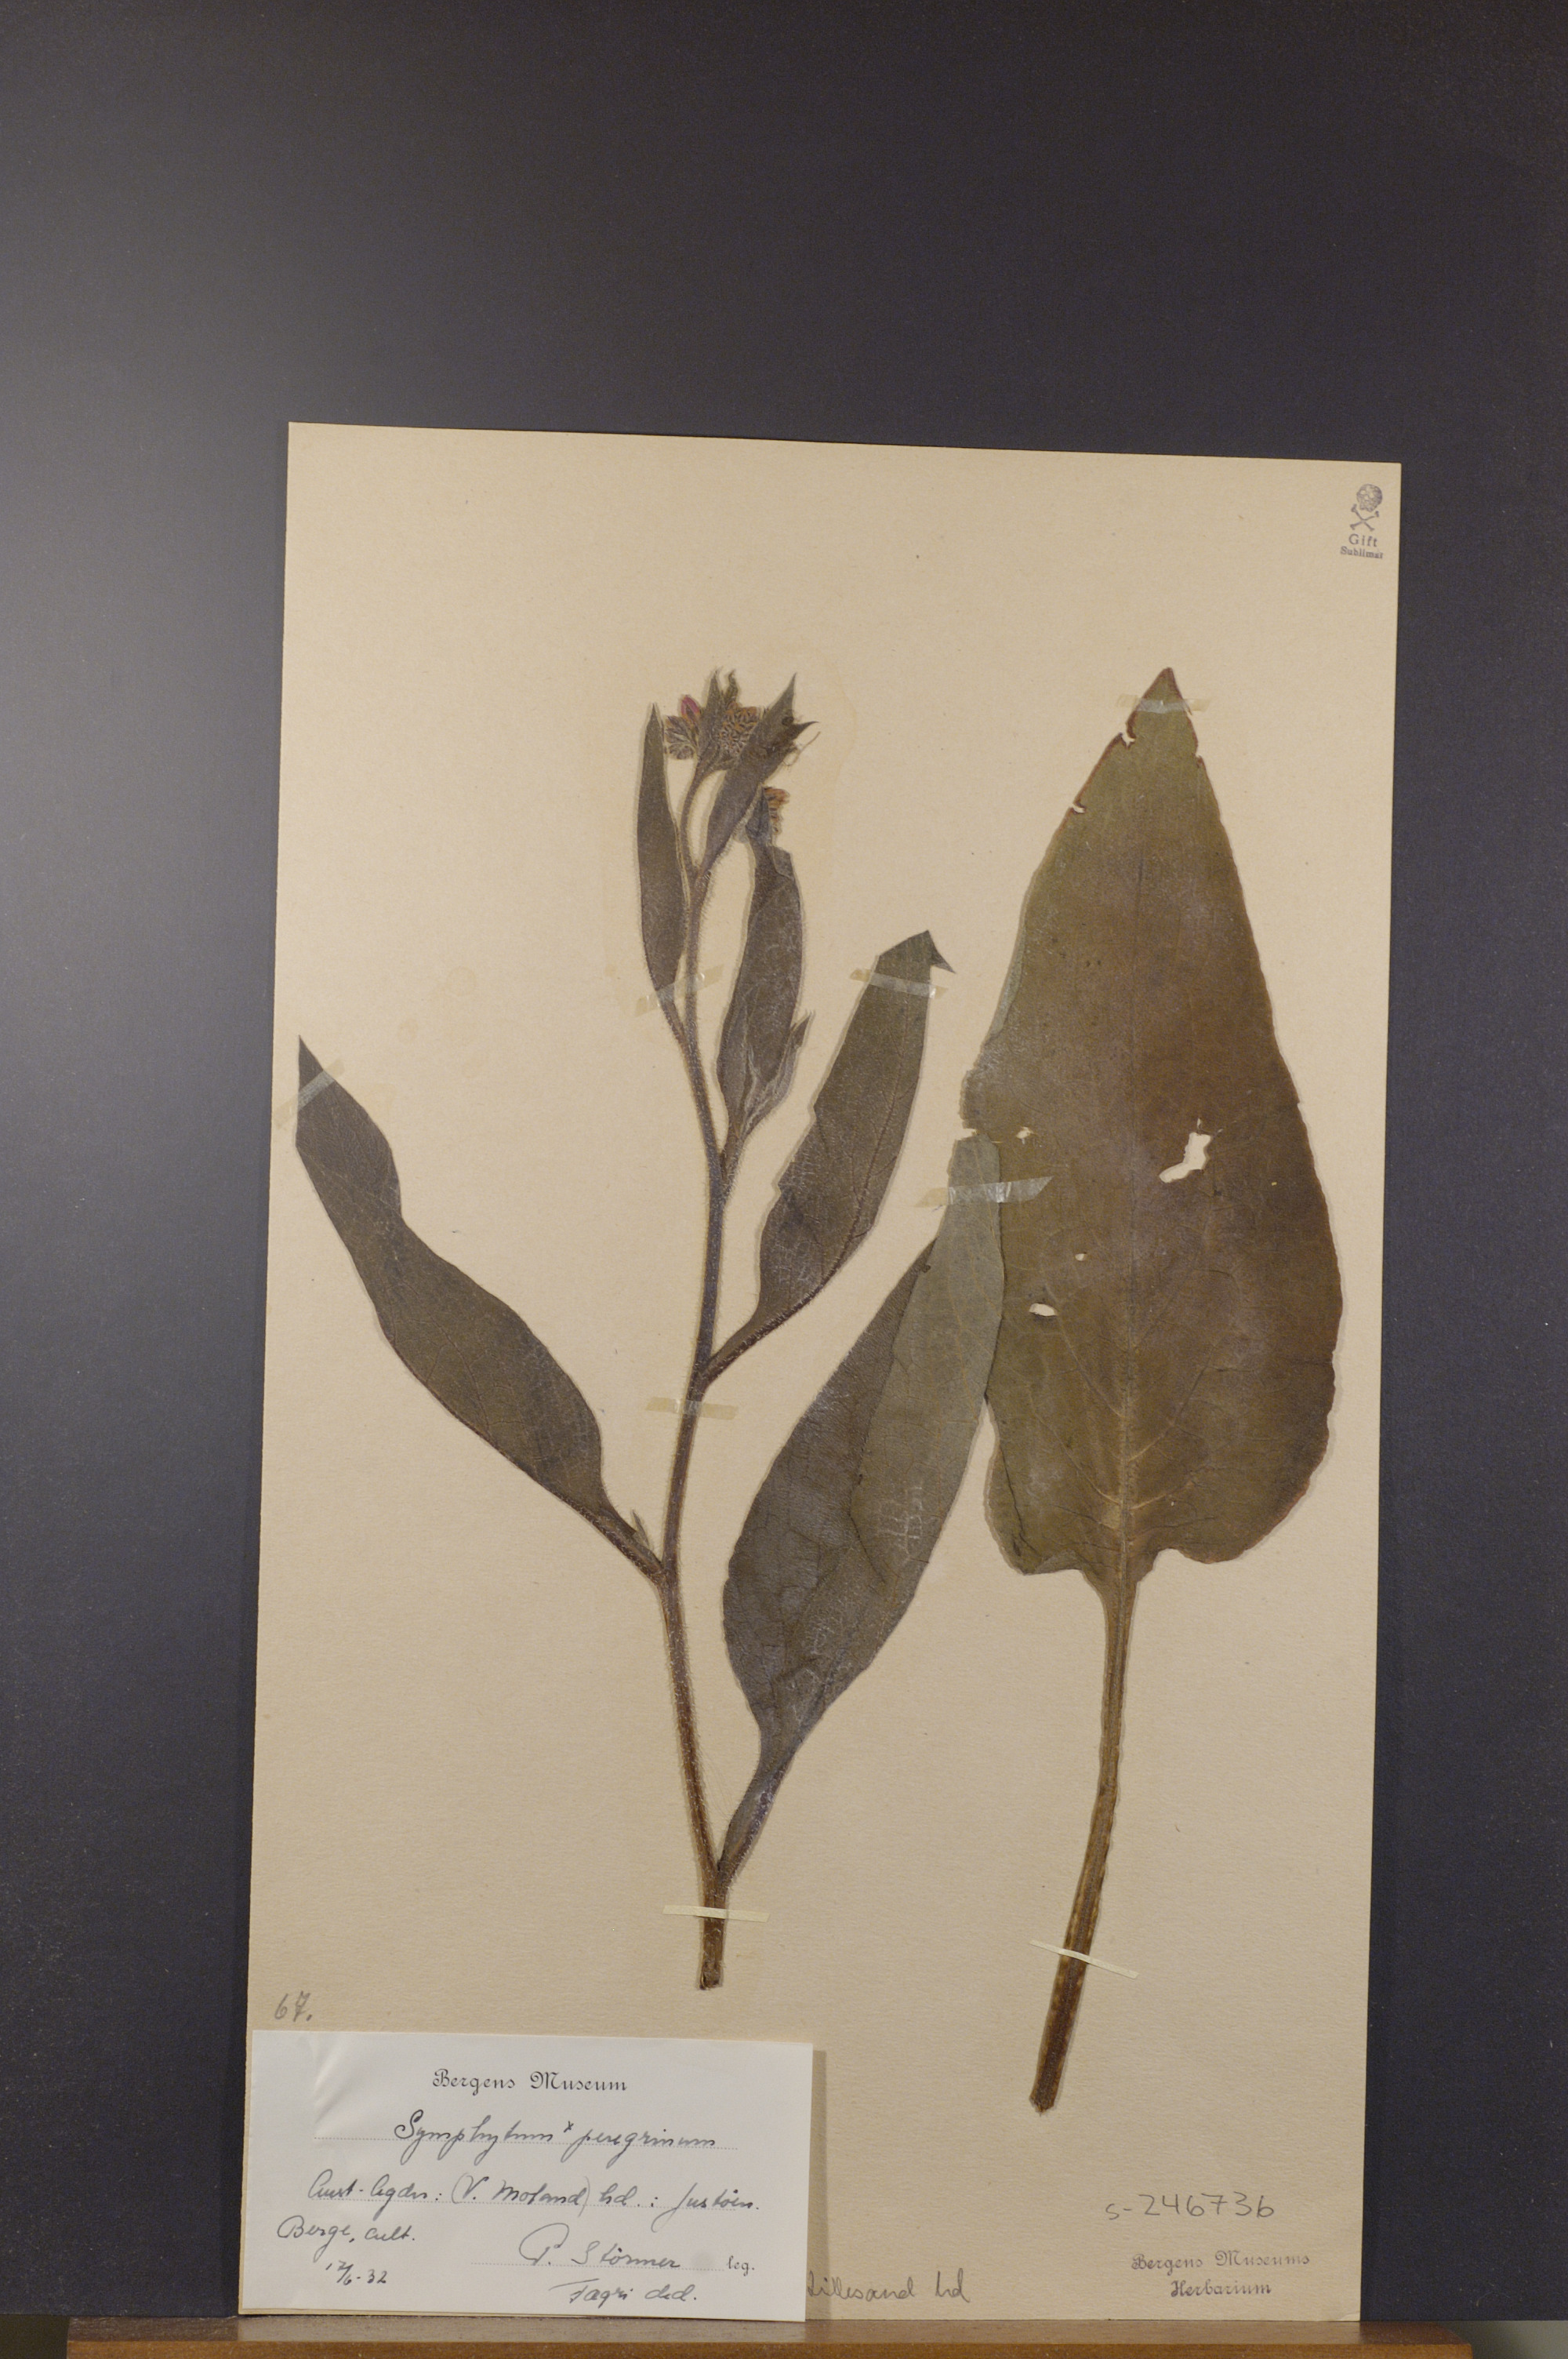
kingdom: Plantae
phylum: Tracheophyta
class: Magnoliopsida
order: Boraginales
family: Boraginaceae
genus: Symphytum
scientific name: Symphytum uplandicum
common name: Russian comfrey
